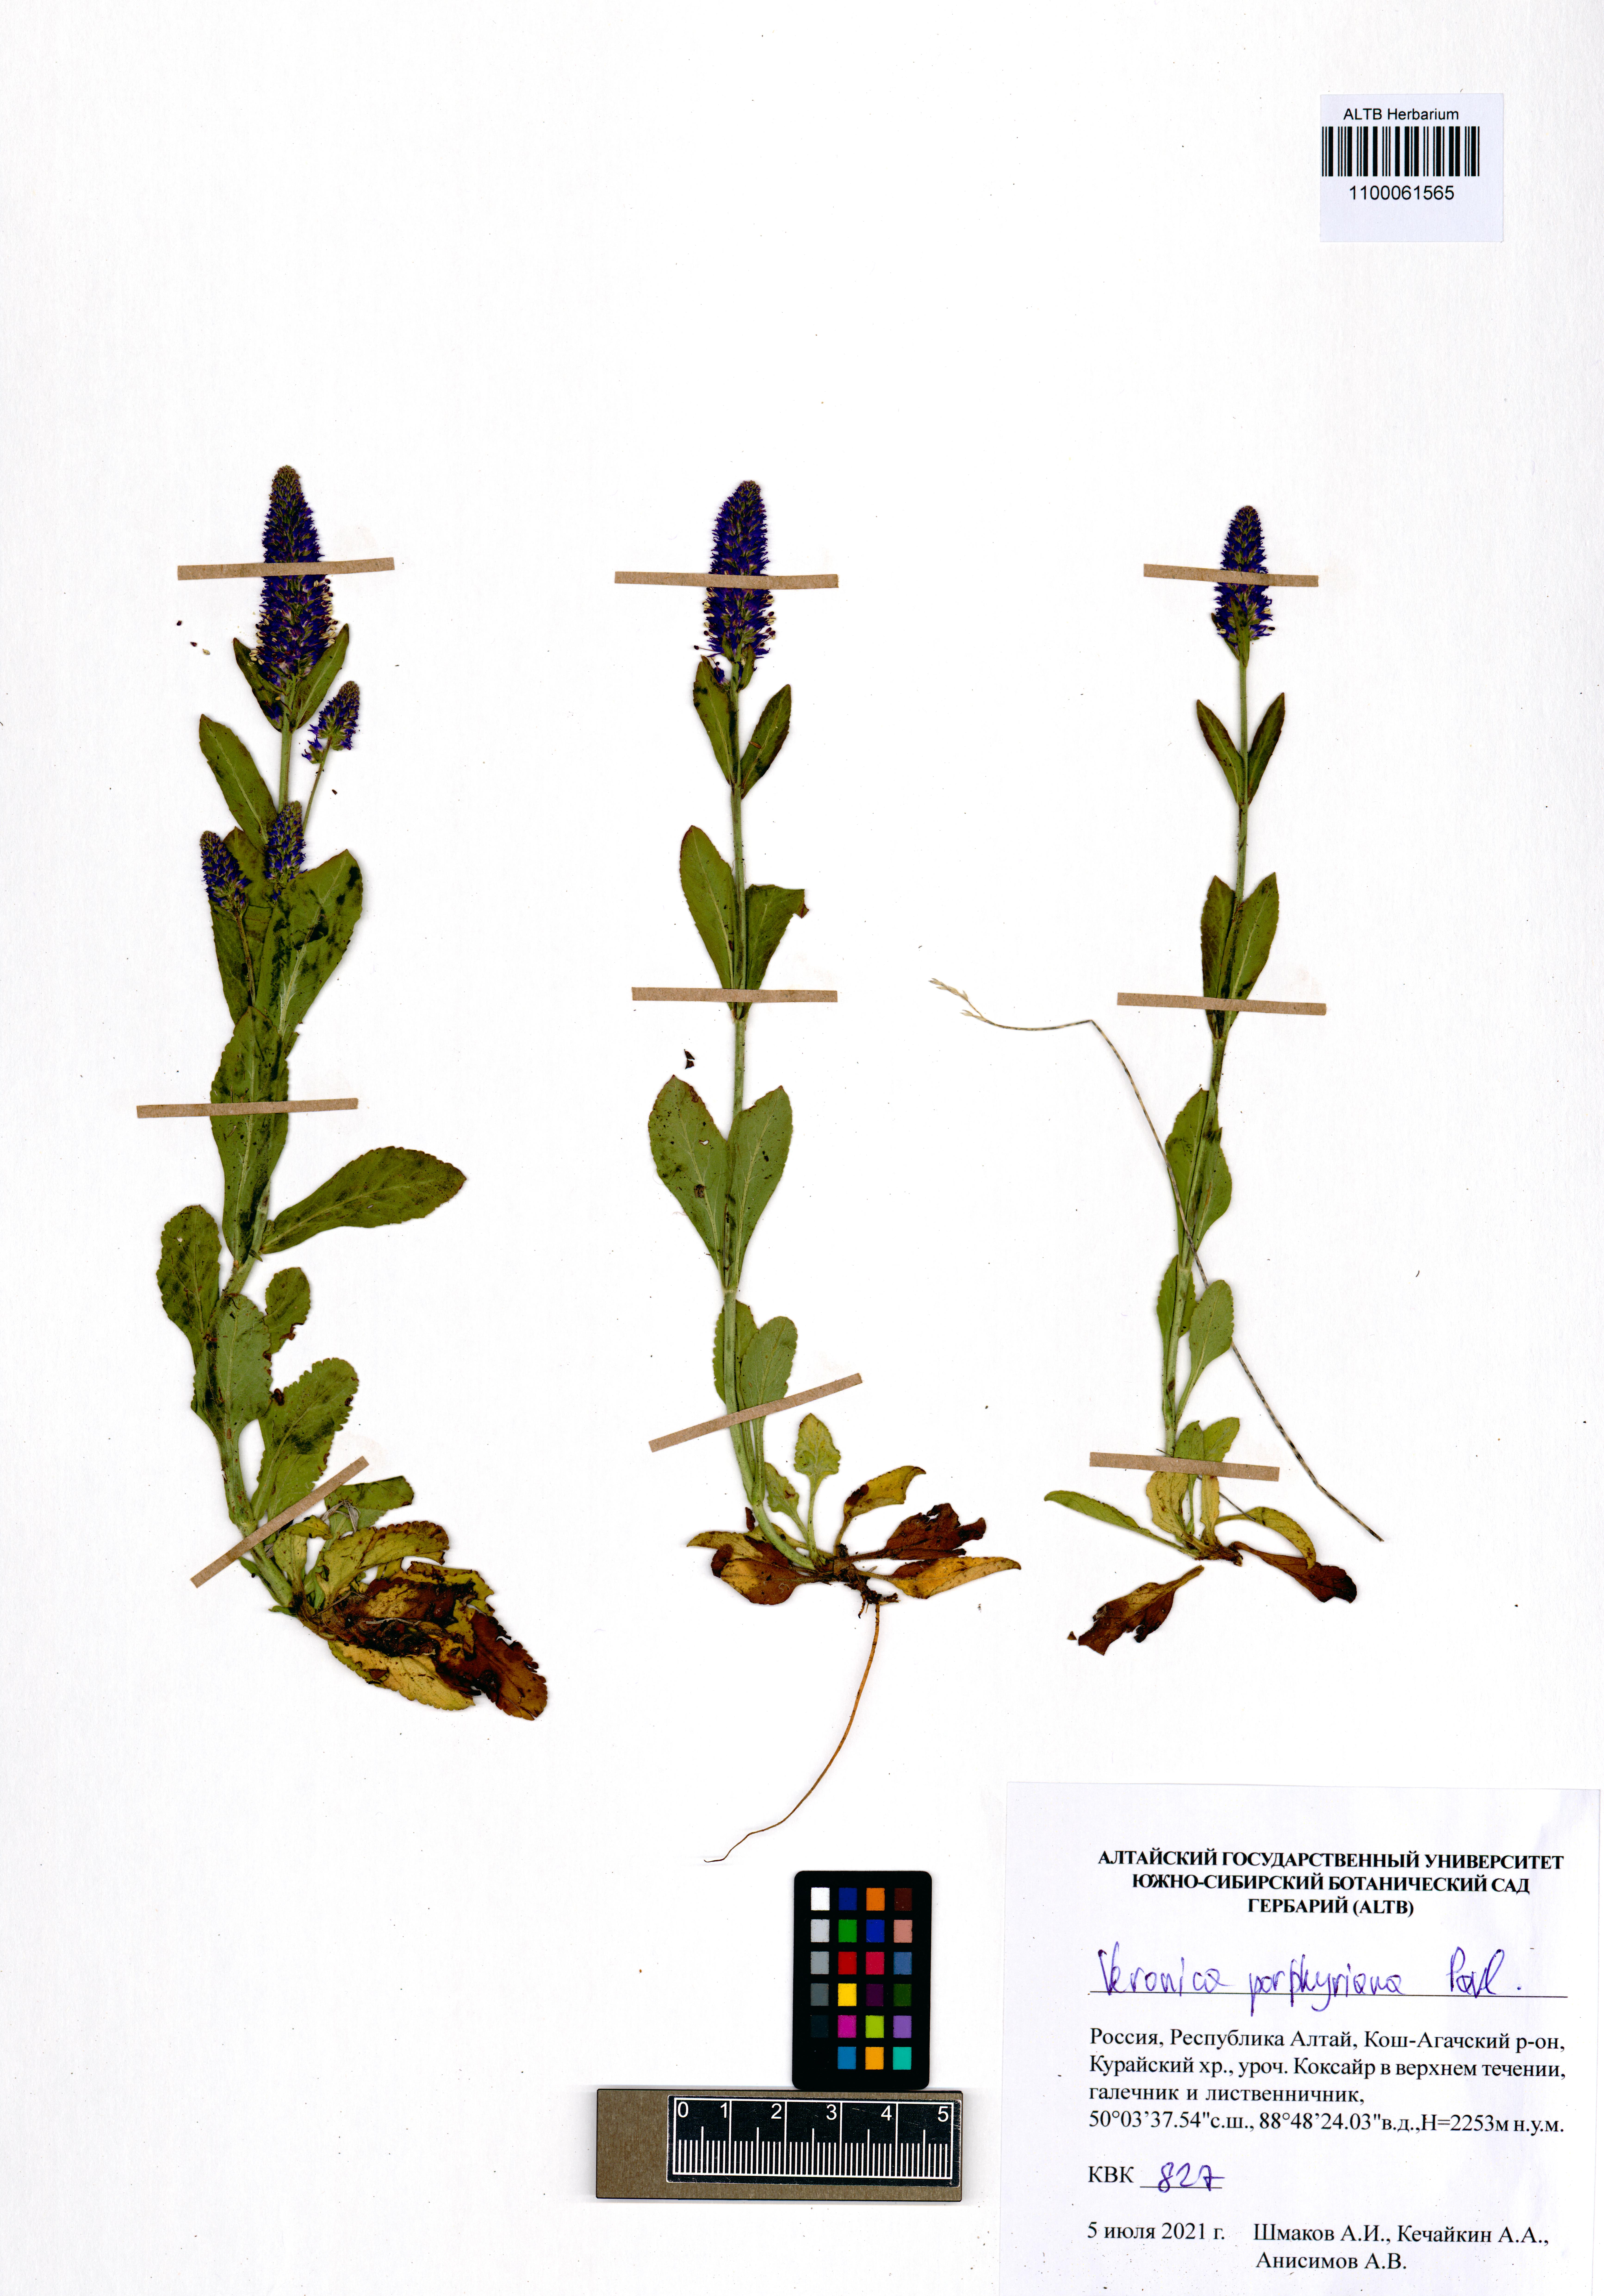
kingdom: Plantae
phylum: Tracheophyta
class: Magnoliopsida
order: Lamiales
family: Plantaginaceae
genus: Veronica
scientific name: Veronica porphyriana
